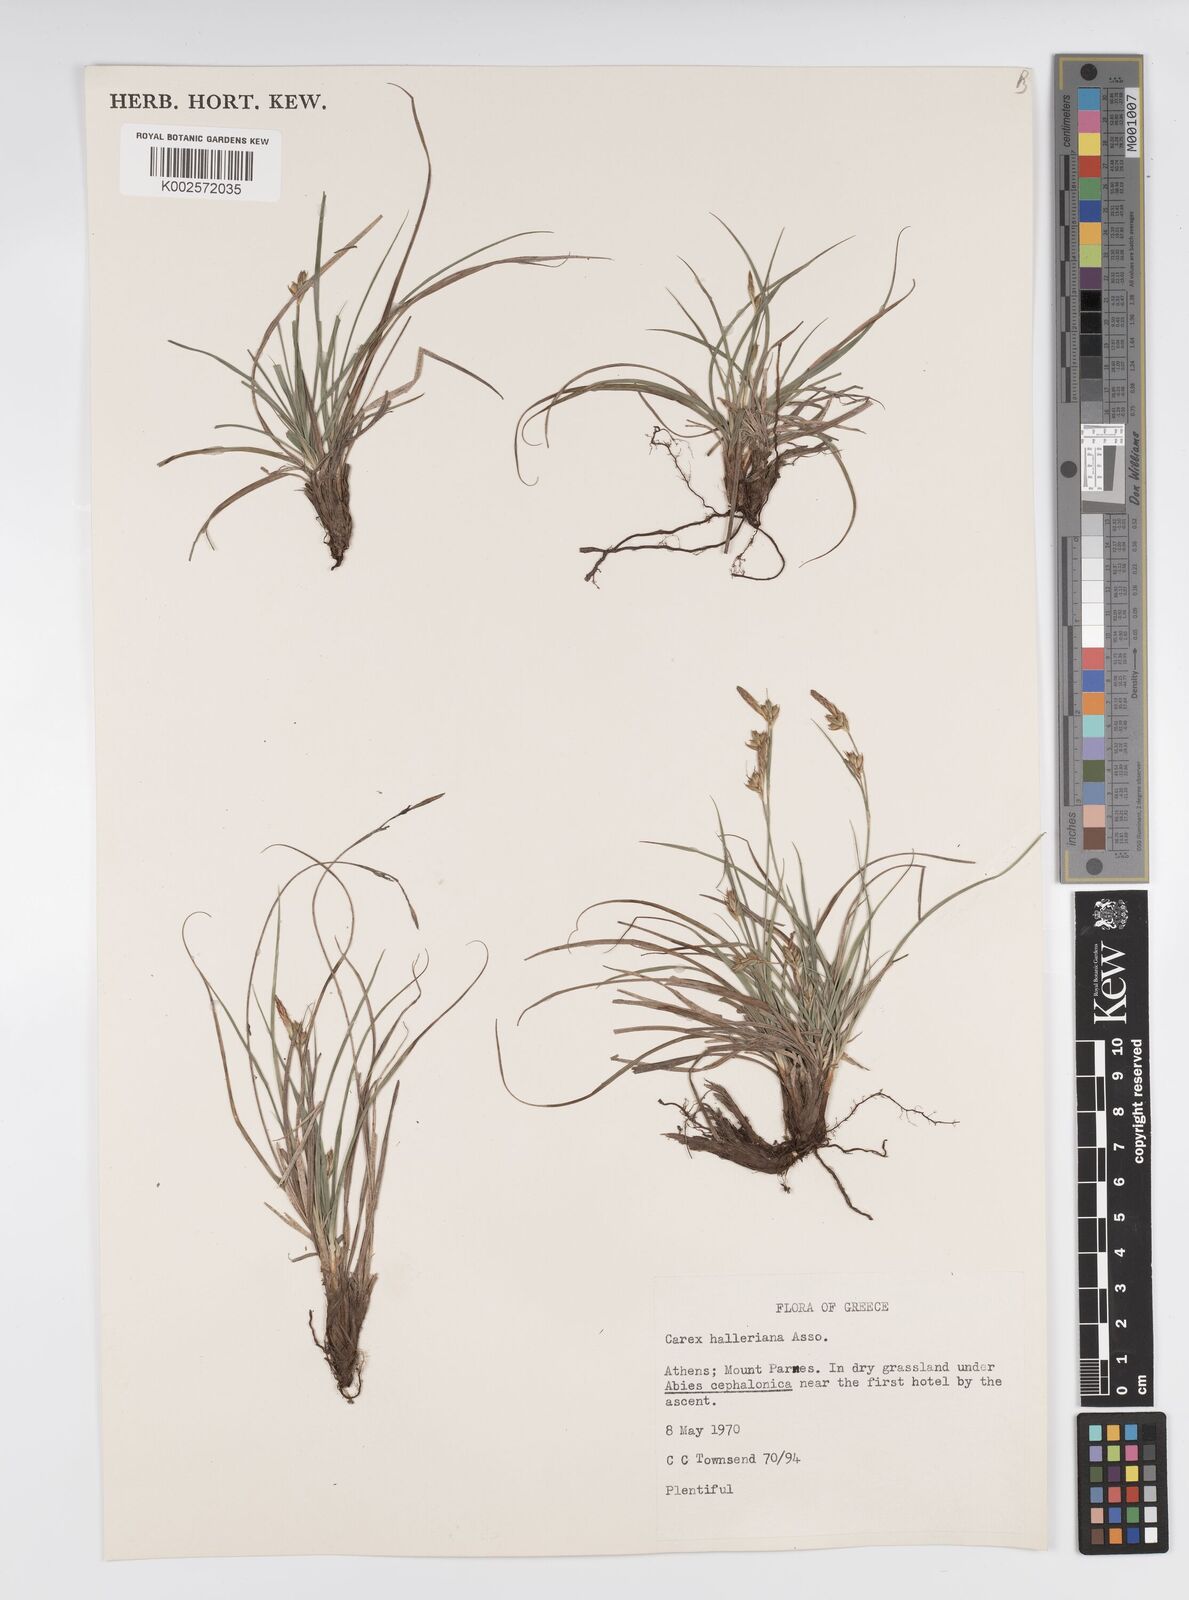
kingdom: Plantae
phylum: Tracheophyta
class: Liliopsida
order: Poales
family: Cyperaceae
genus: Carex
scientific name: Carex halleriana
